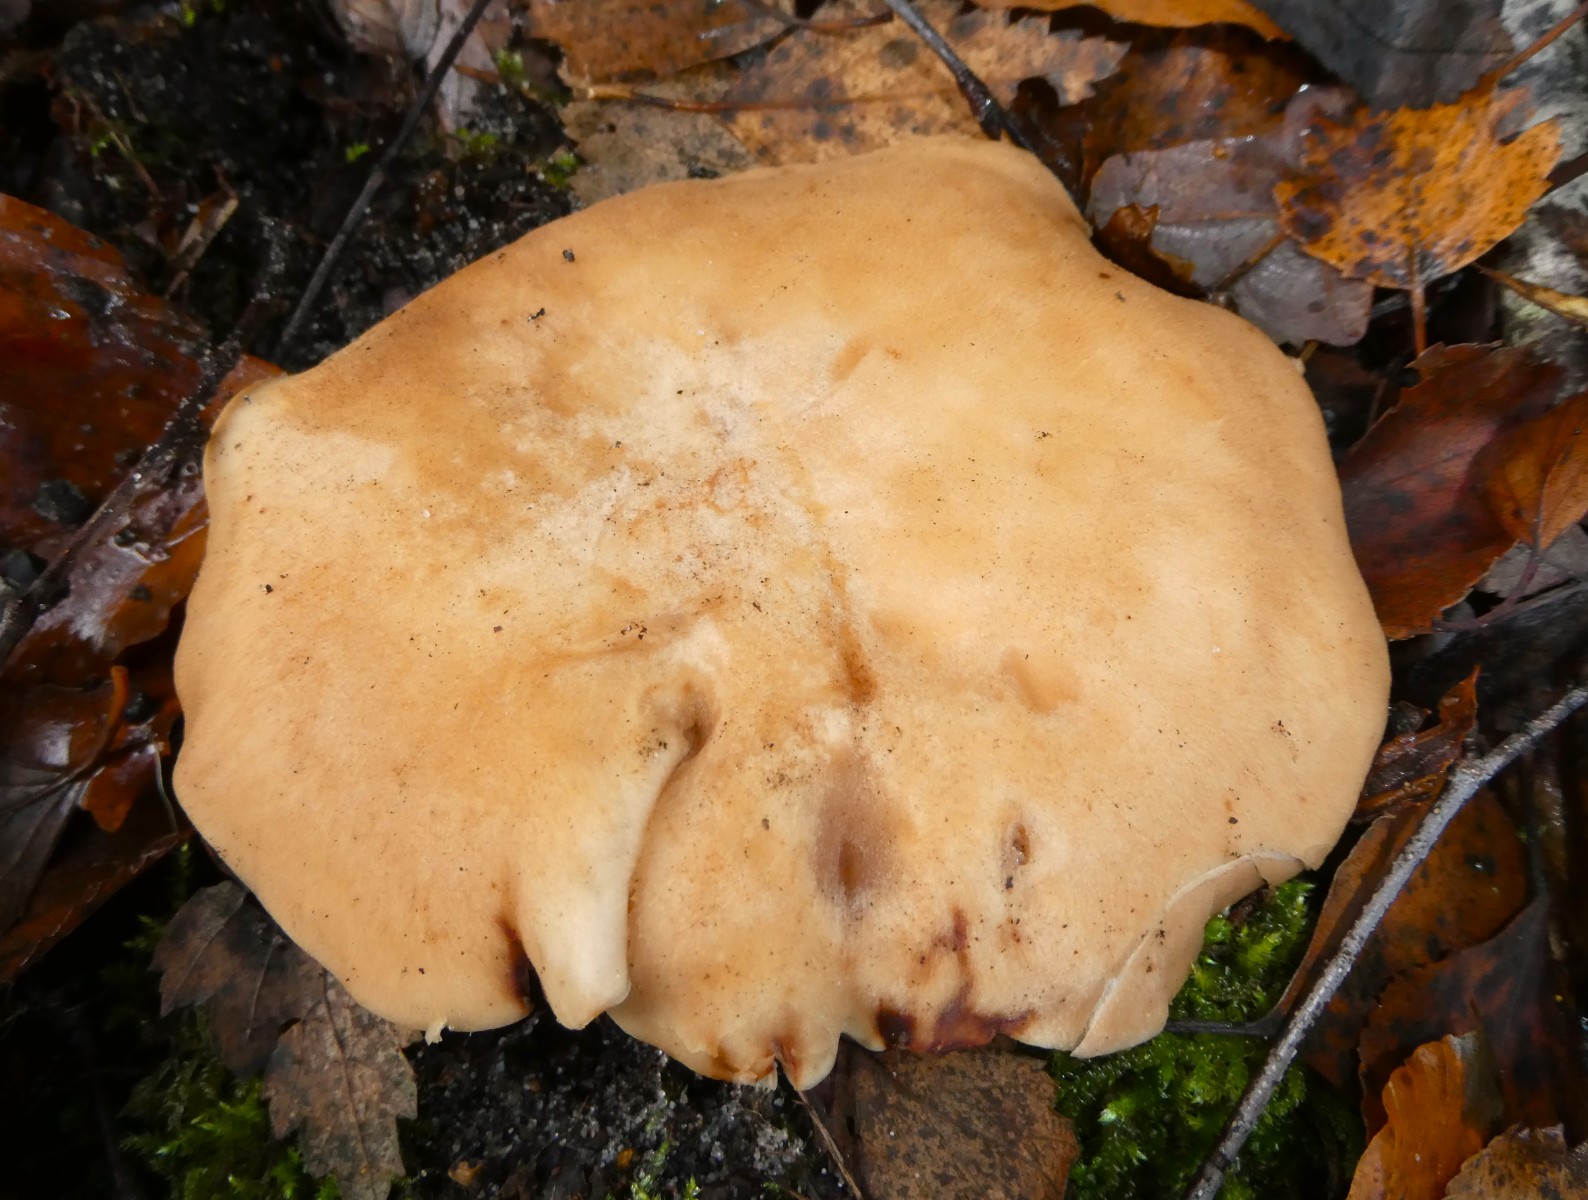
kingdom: Fungi
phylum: Basidiomycota
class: Agaricomycetes
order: Agaricales
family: Entolomataceae
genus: Clitopilus
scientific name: Clitopilus geminus
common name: kødfarvet troldhat
